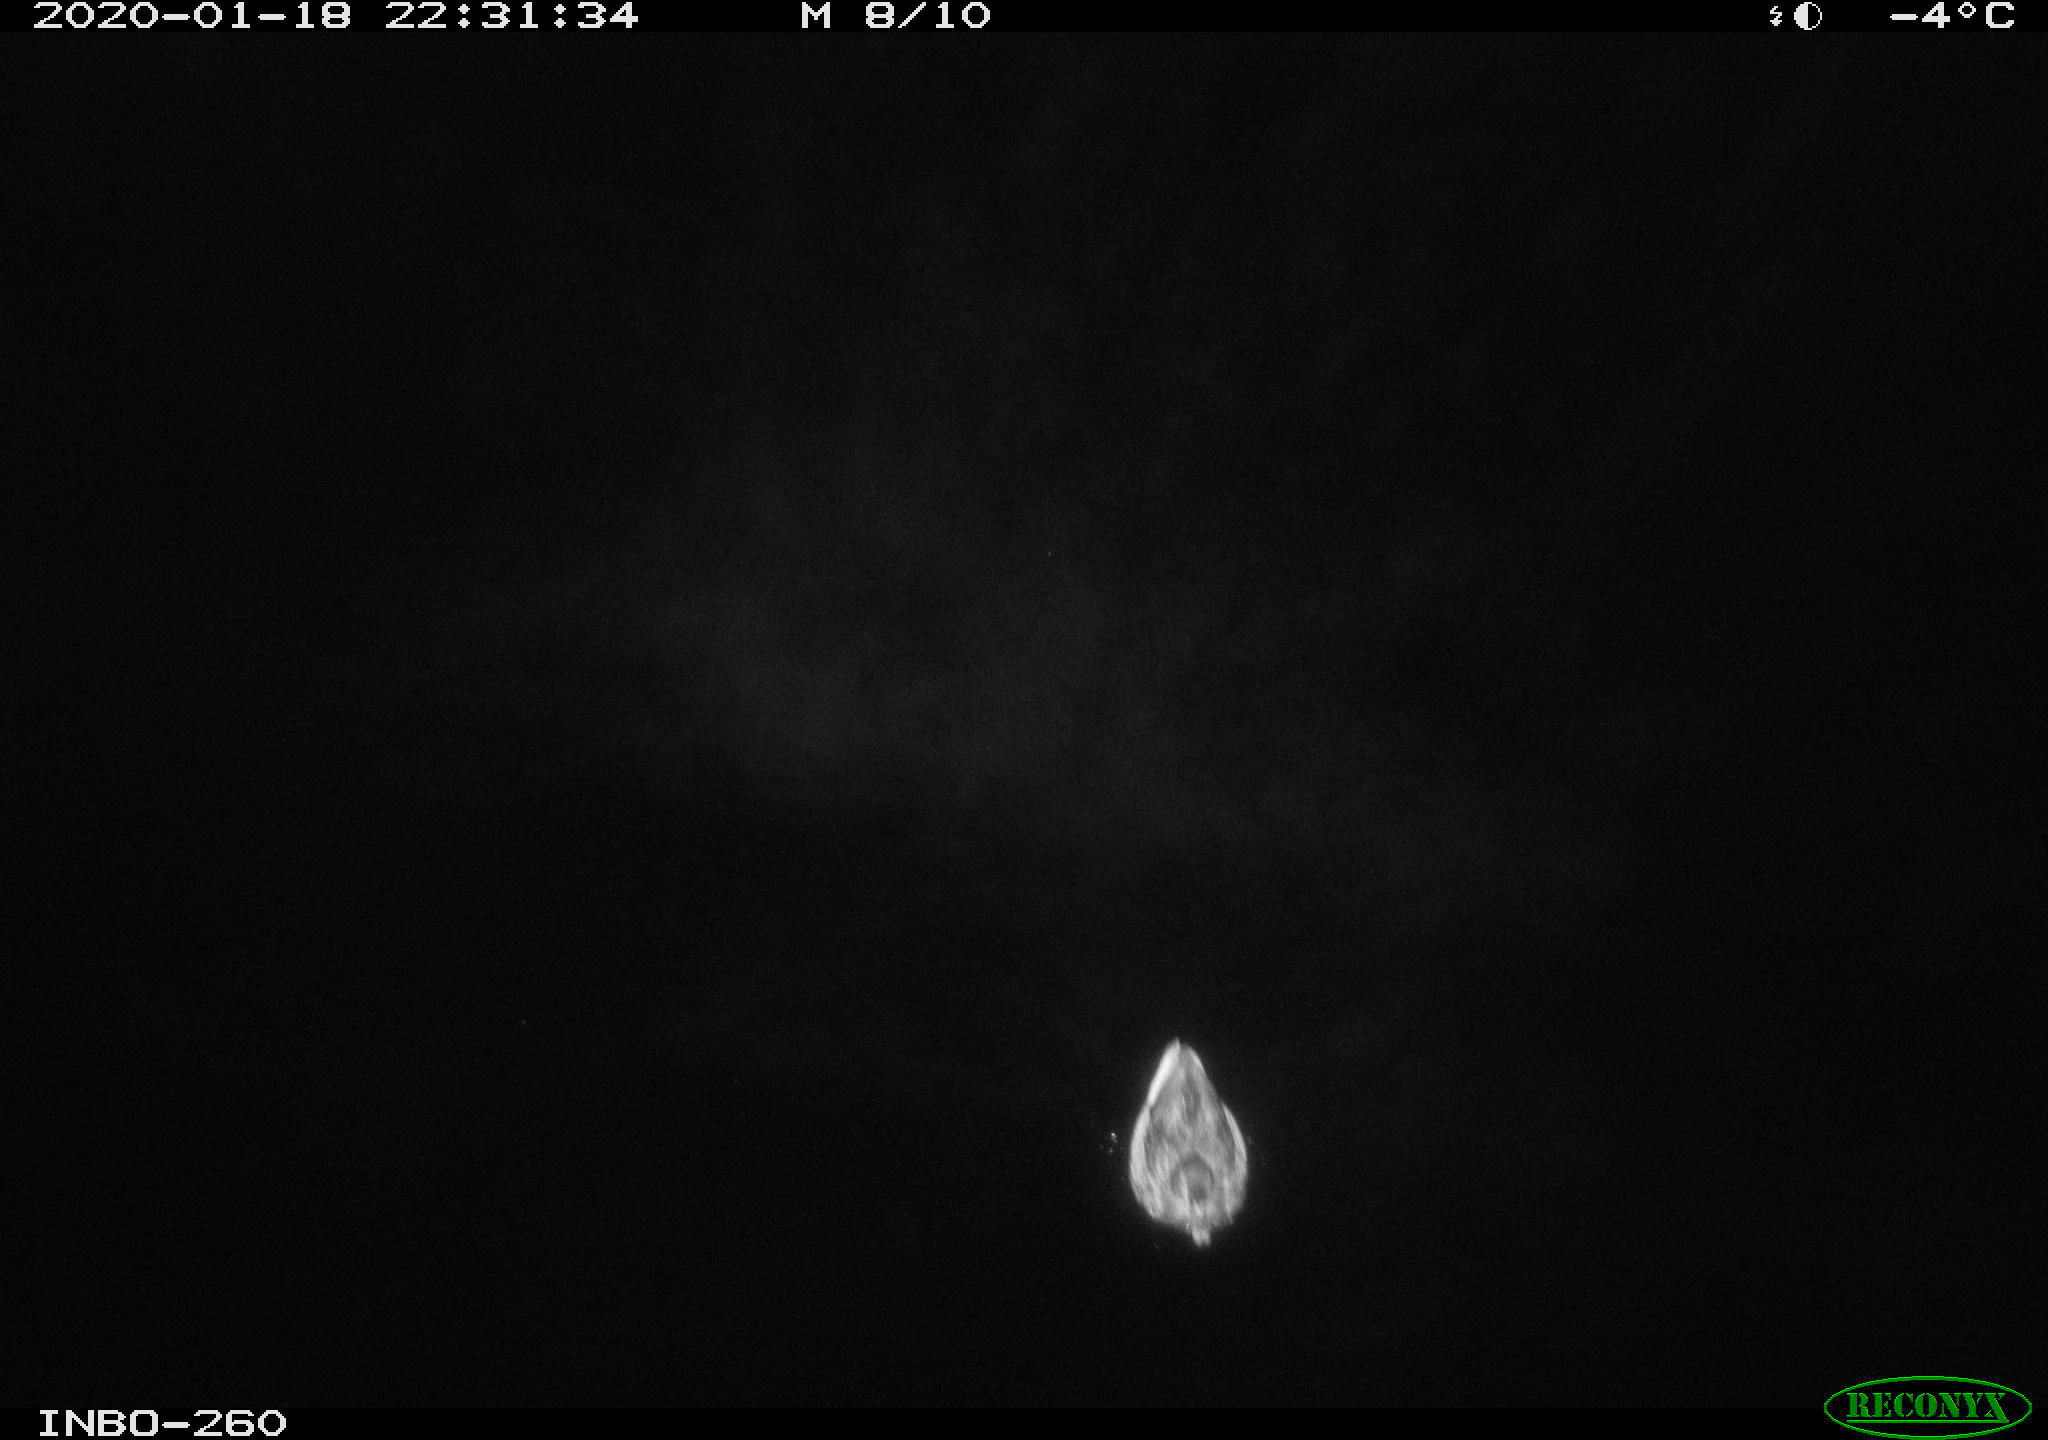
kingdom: Animalia
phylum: Chordata
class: Aves
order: Anseriformes
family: Anatidae
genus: Anas
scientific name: Anas platyrhynchos
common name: Mallard
